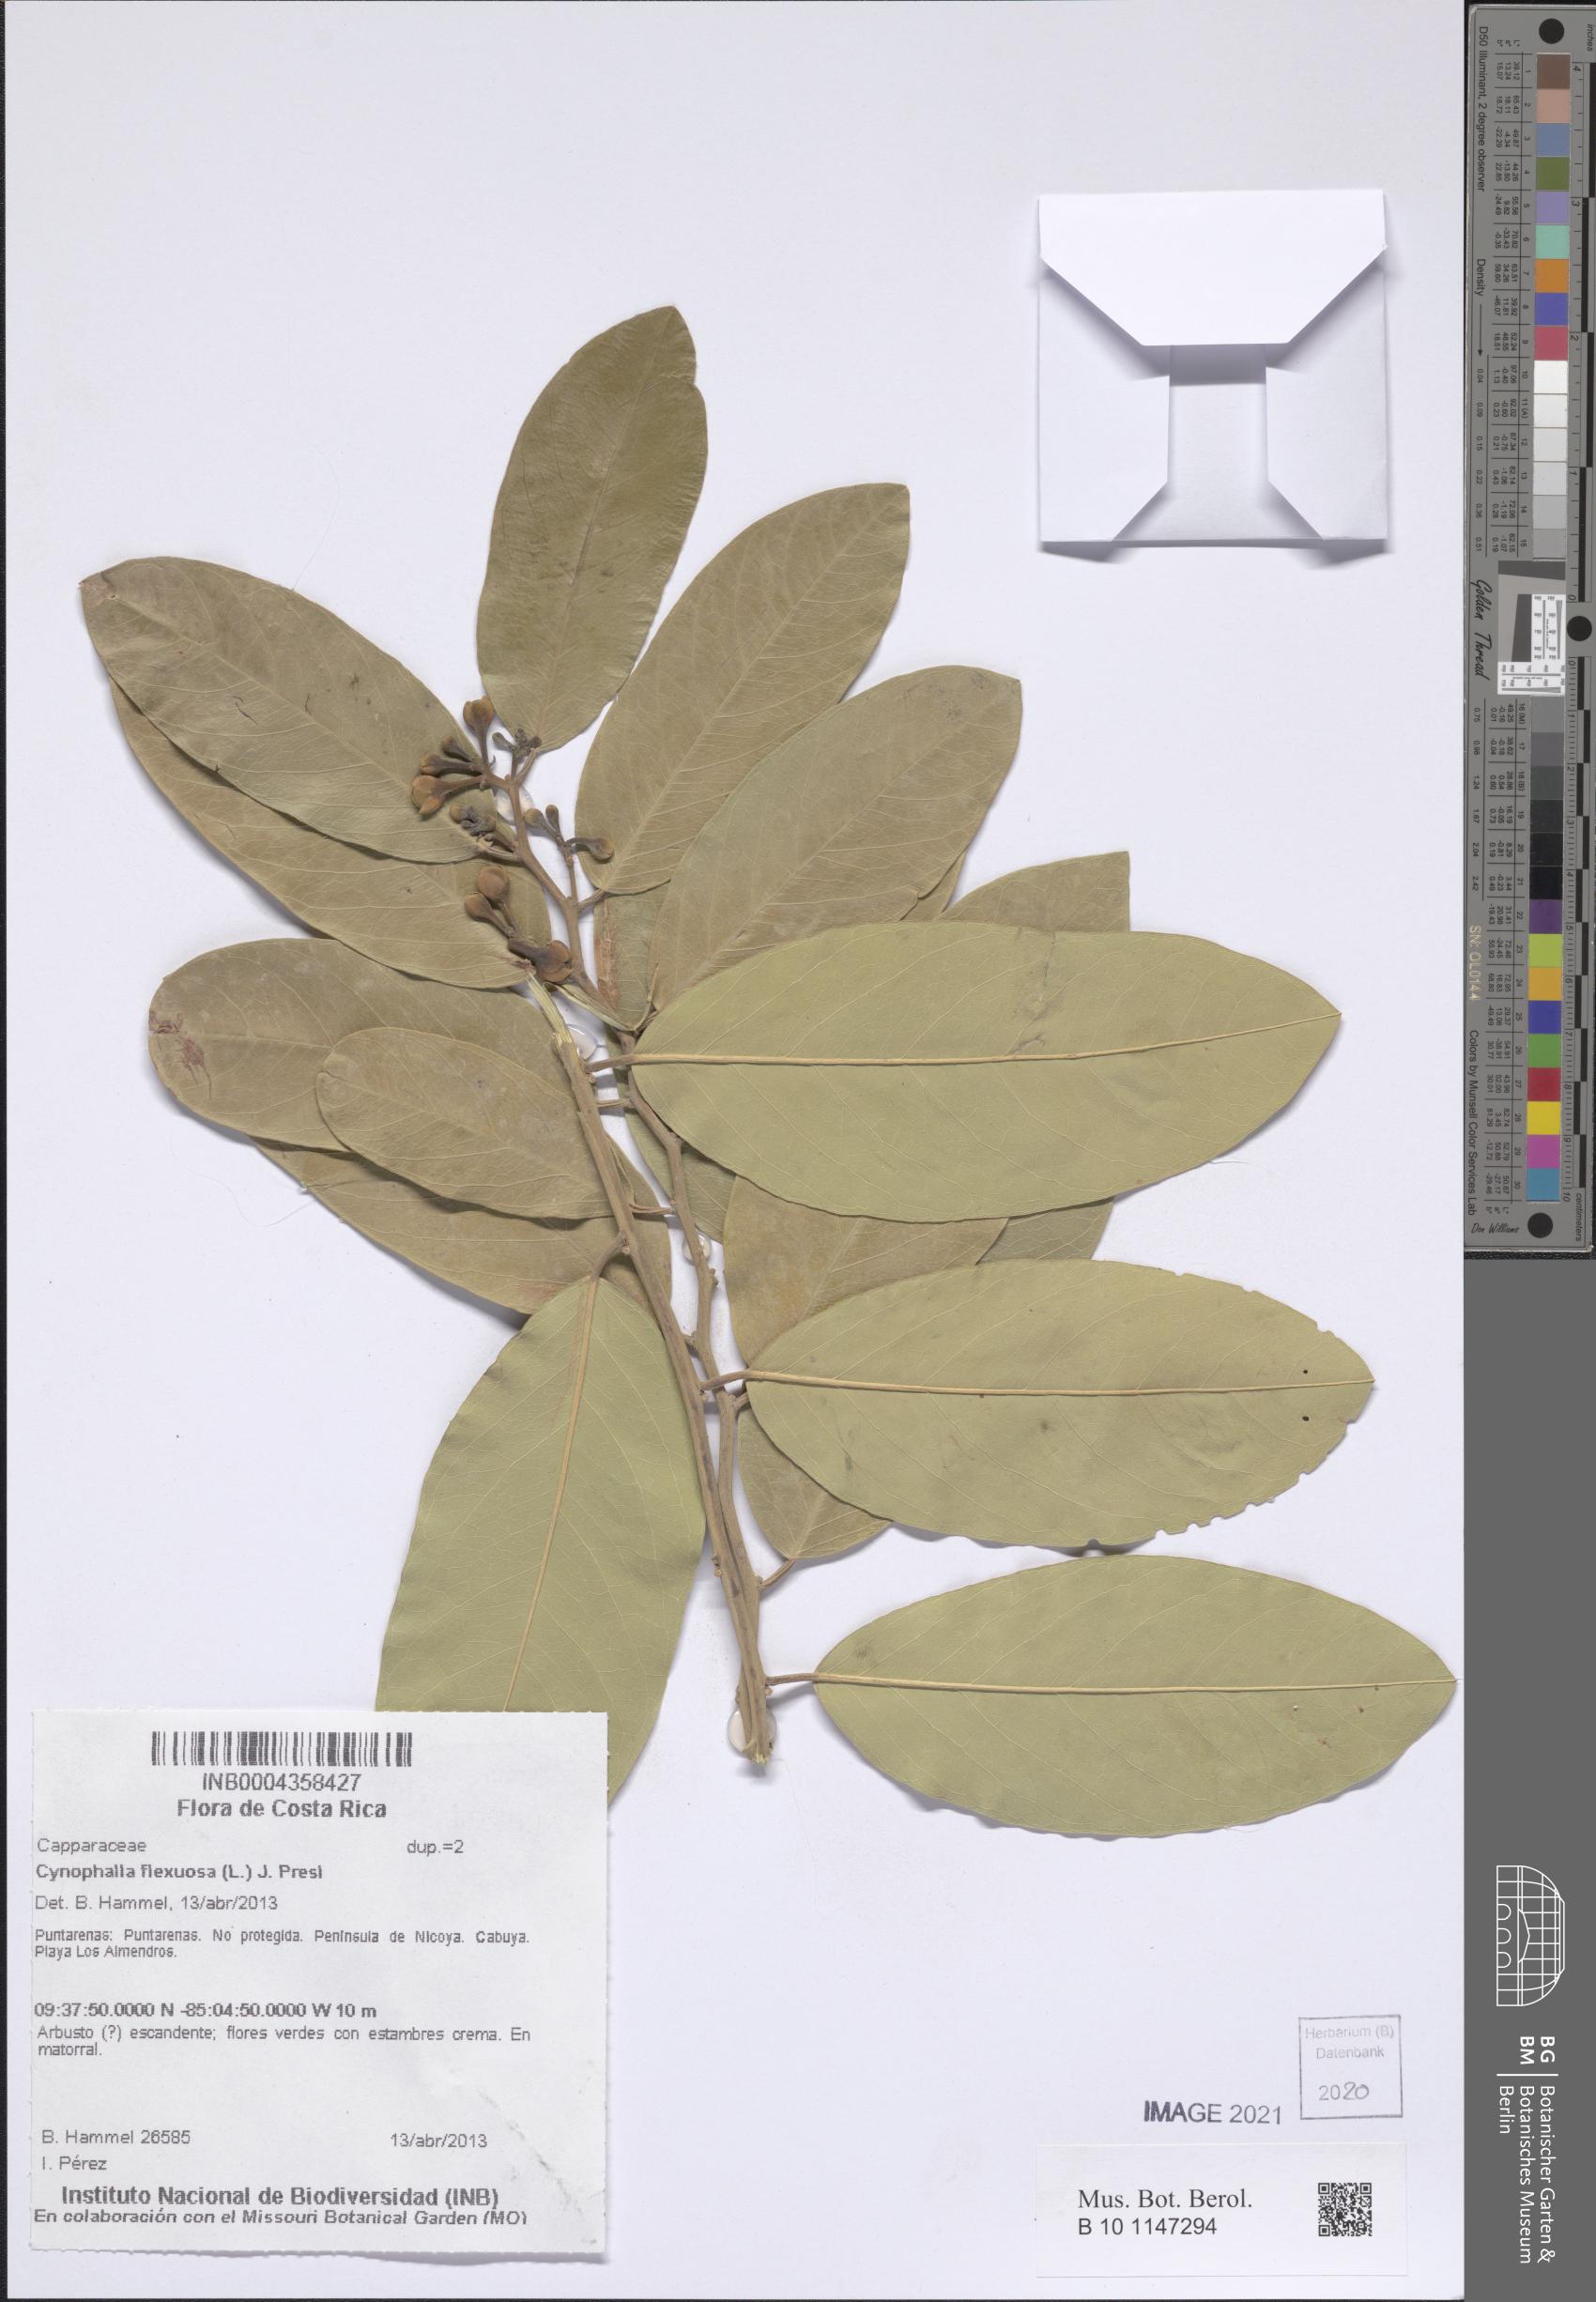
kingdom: Plantae
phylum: Tracheophyta
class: Magnoliopsida
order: Brassicales
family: Capparaceae
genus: Cynophalla
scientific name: Cynophalla flexuosa
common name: Capertree
